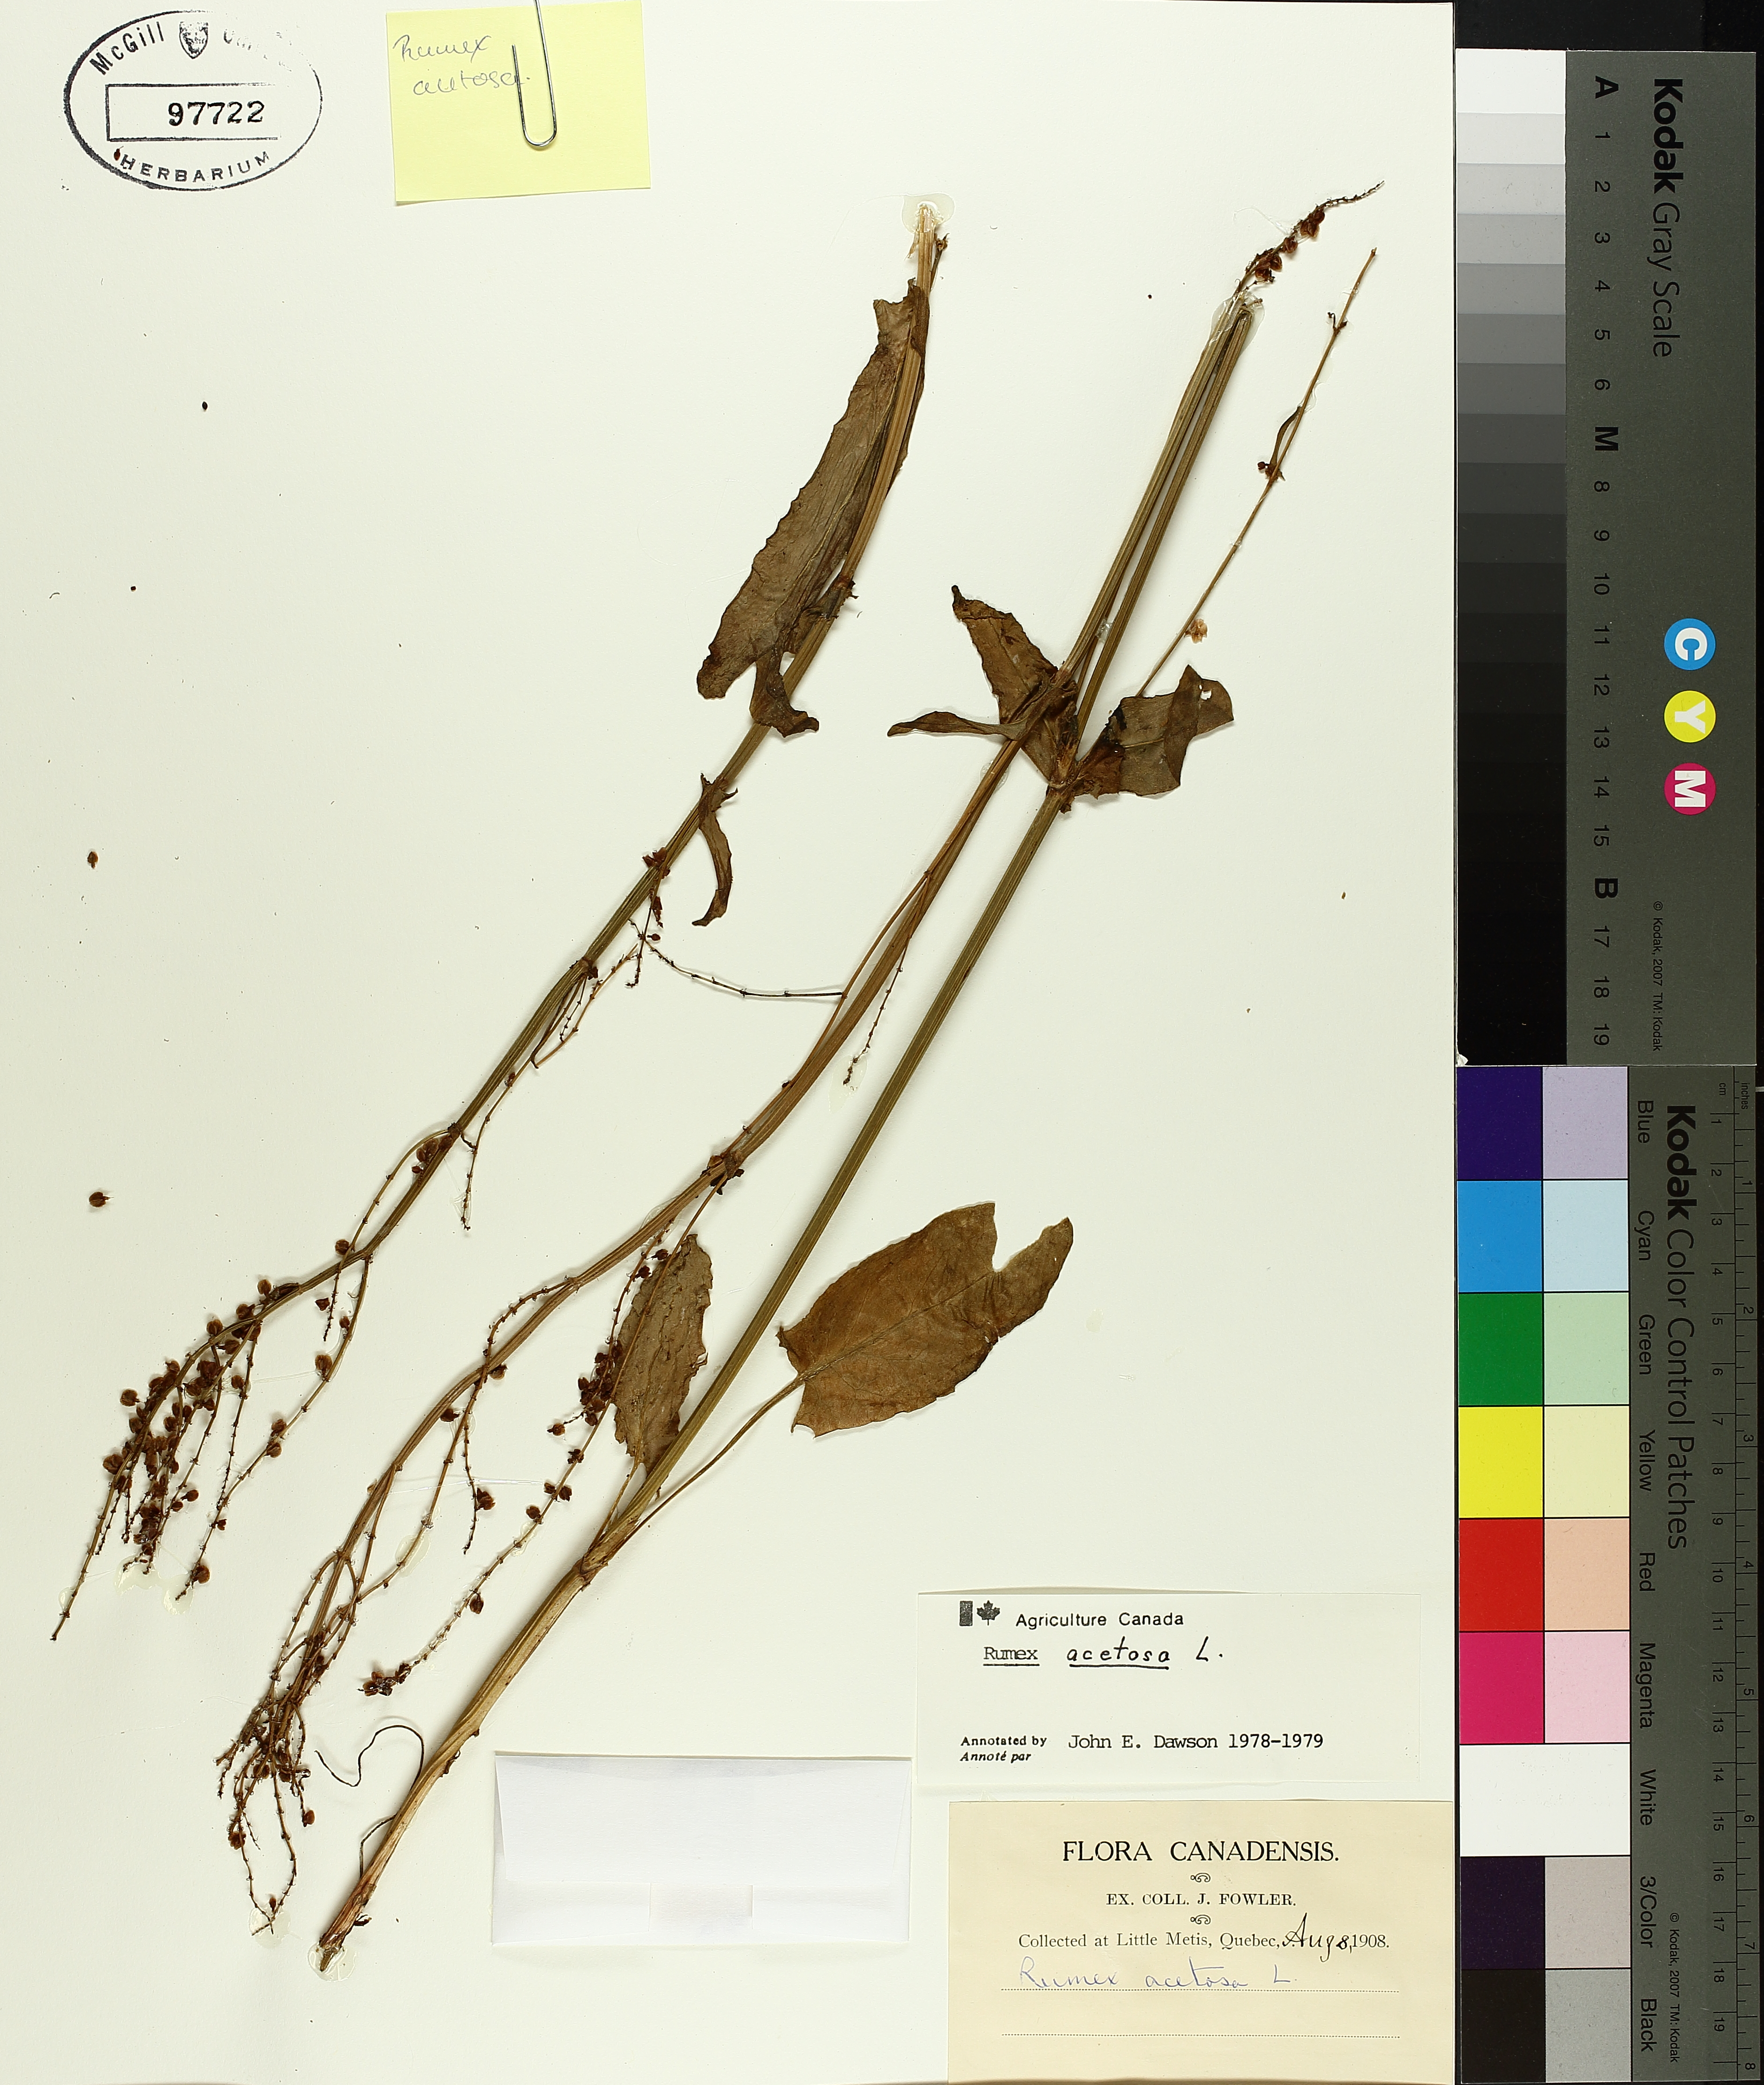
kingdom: Plantae
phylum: Tracheophyta
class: Magnoliopsida
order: Caryophyllales
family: Polygonaceae
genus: Rumex
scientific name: Rumex acetosa
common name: Garden sorrel
